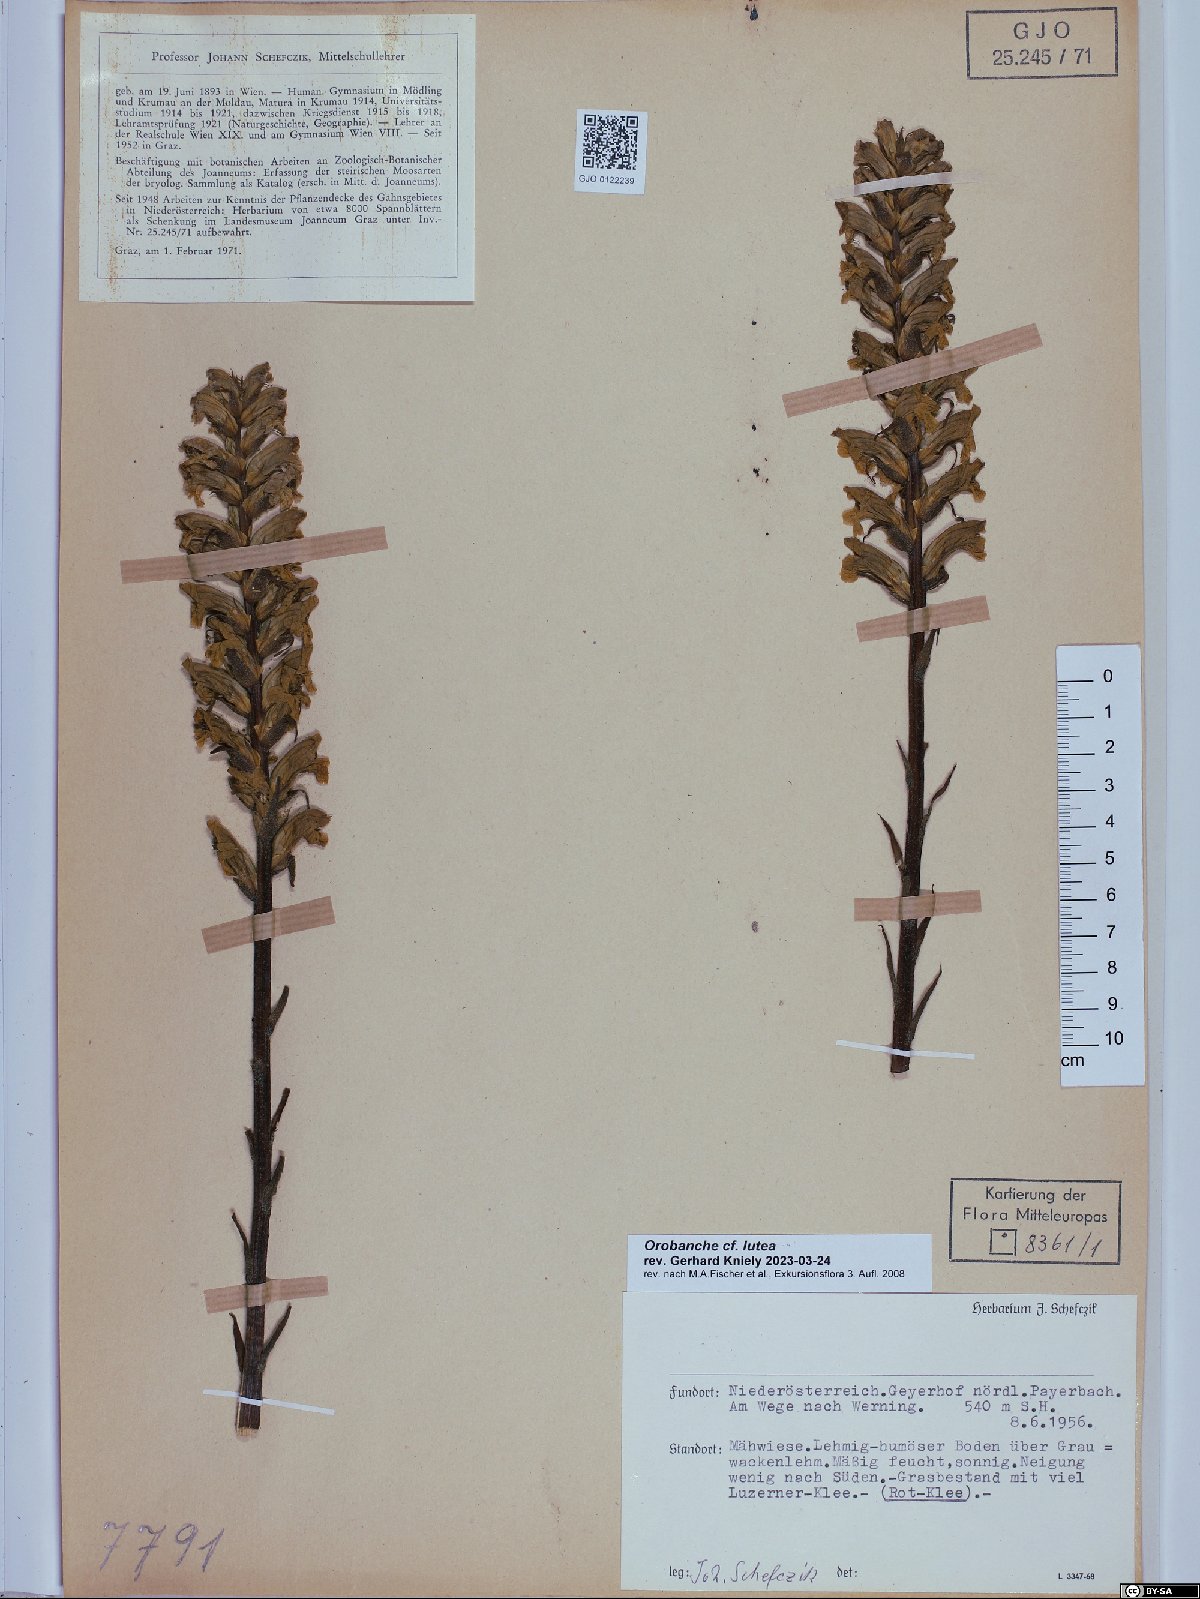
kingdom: Plantae
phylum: Tracheophyta
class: Magnoliopsida
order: Lamiales
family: Orobanchaceae
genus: Orobanche
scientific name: Orobanche lutea
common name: Yellow broomrape
